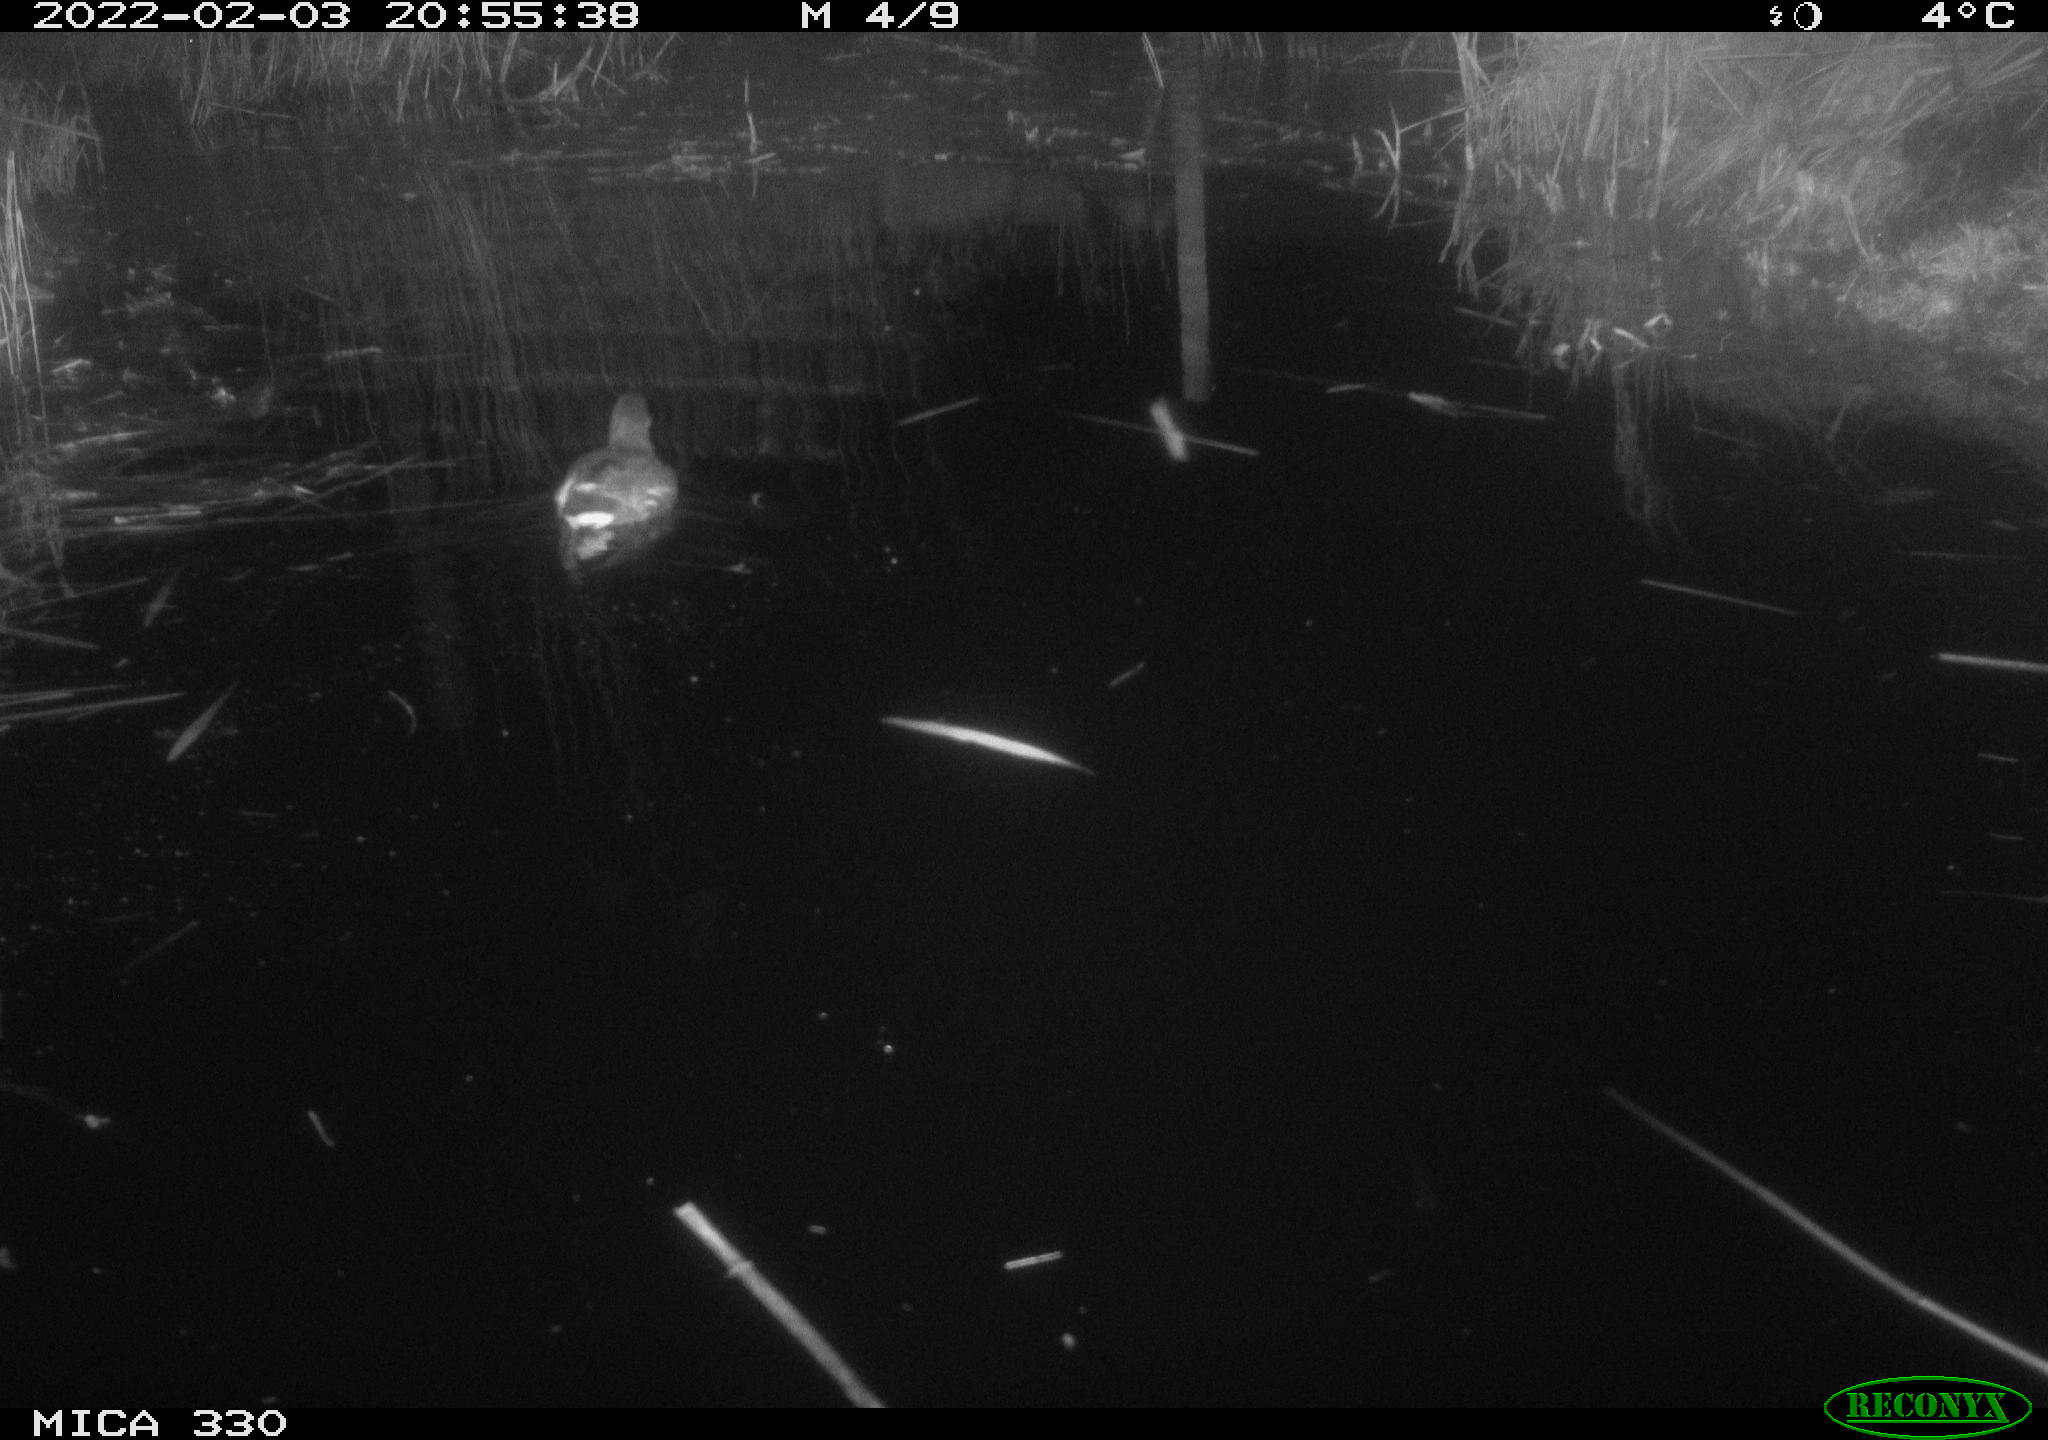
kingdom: Animalia
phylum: Chordata
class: Aves
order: Gruiformes
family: Rallidae
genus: Gallinula
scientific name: Gallinula chloropus
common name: Common moorhen
